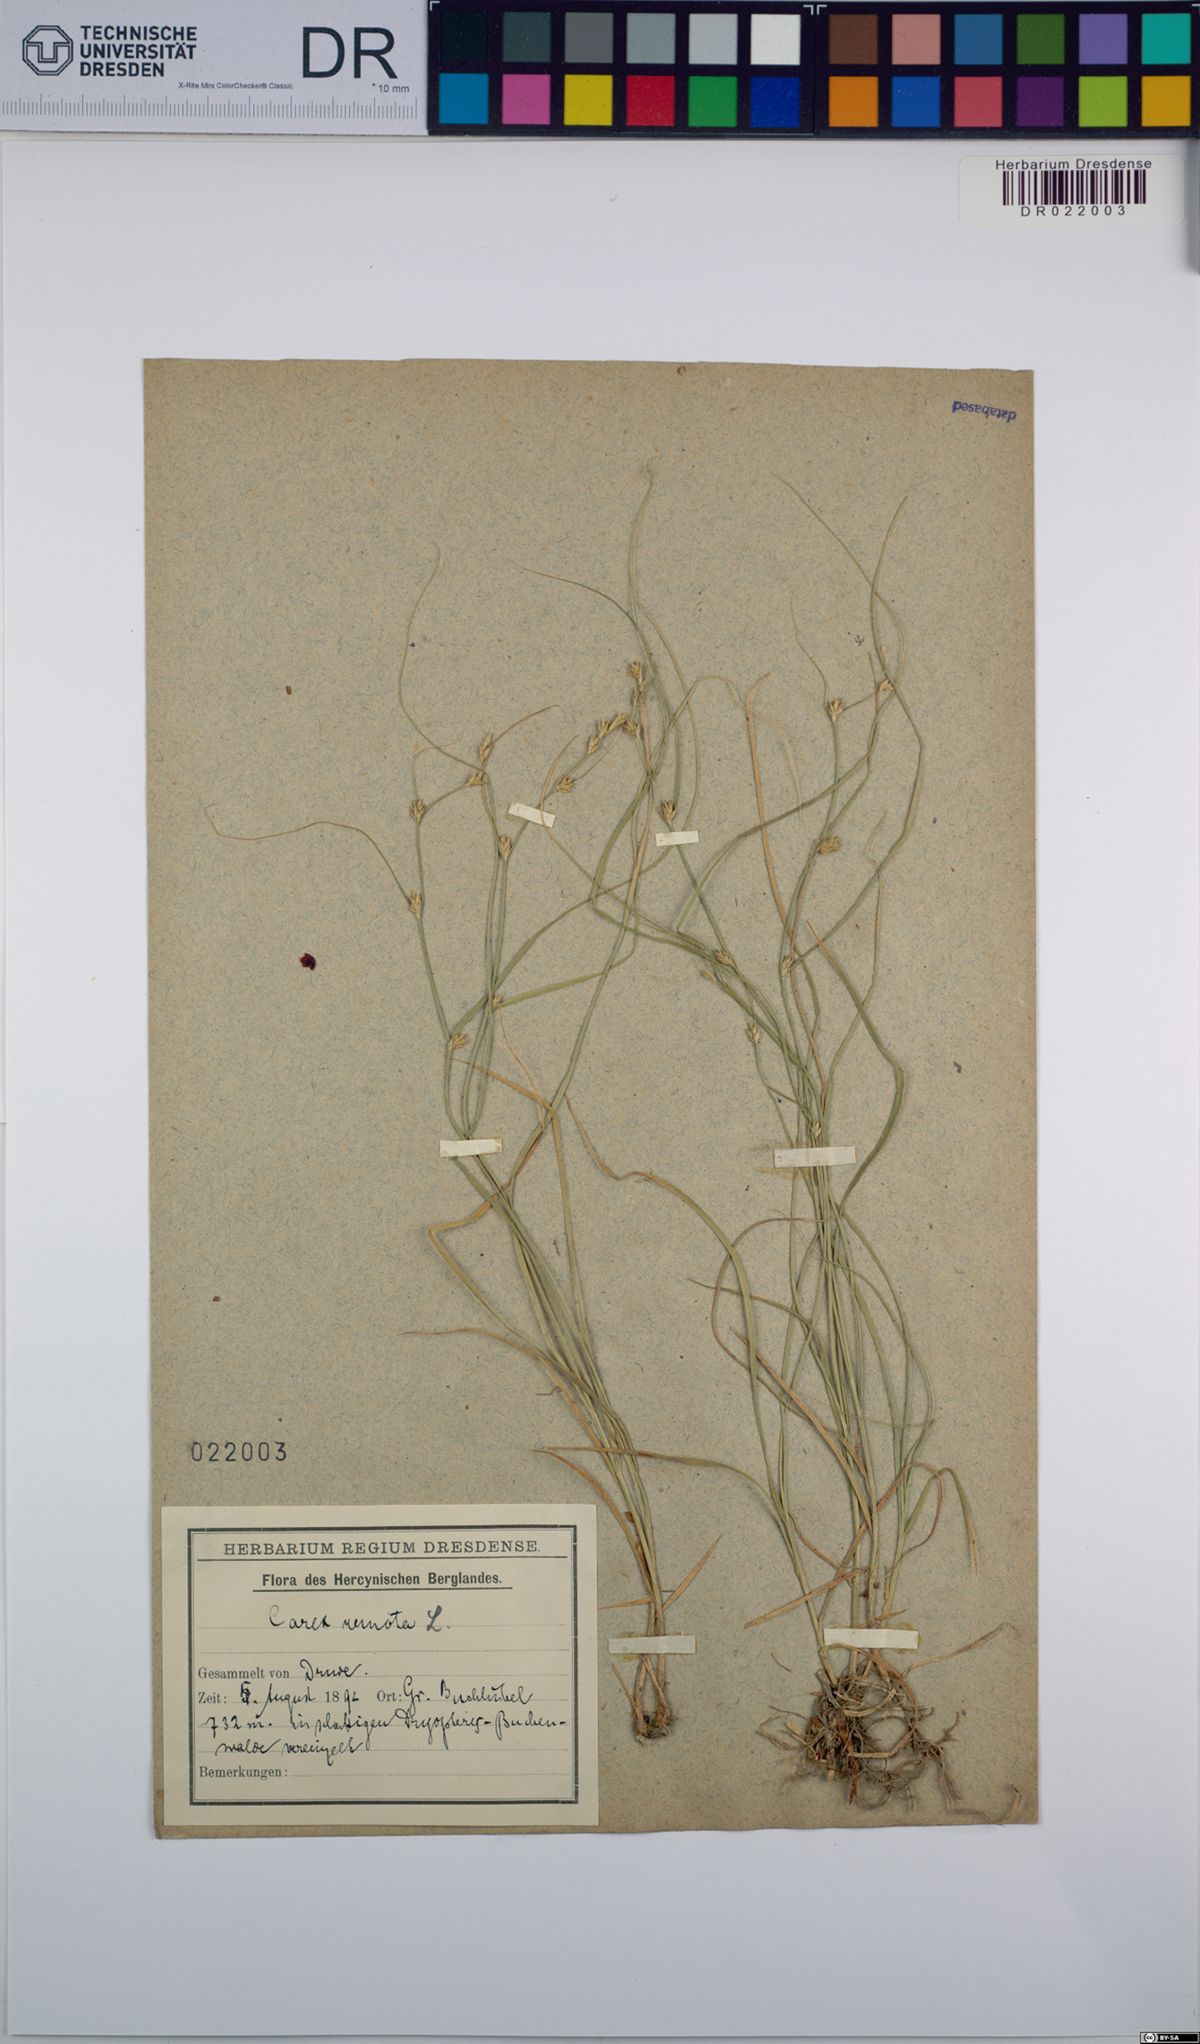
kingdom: Plantae
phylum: Tracheophyta
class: Liliopsida
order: Poales
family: Cyperaceae
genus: Carex
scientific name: Carex remota
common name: Remote sedge
